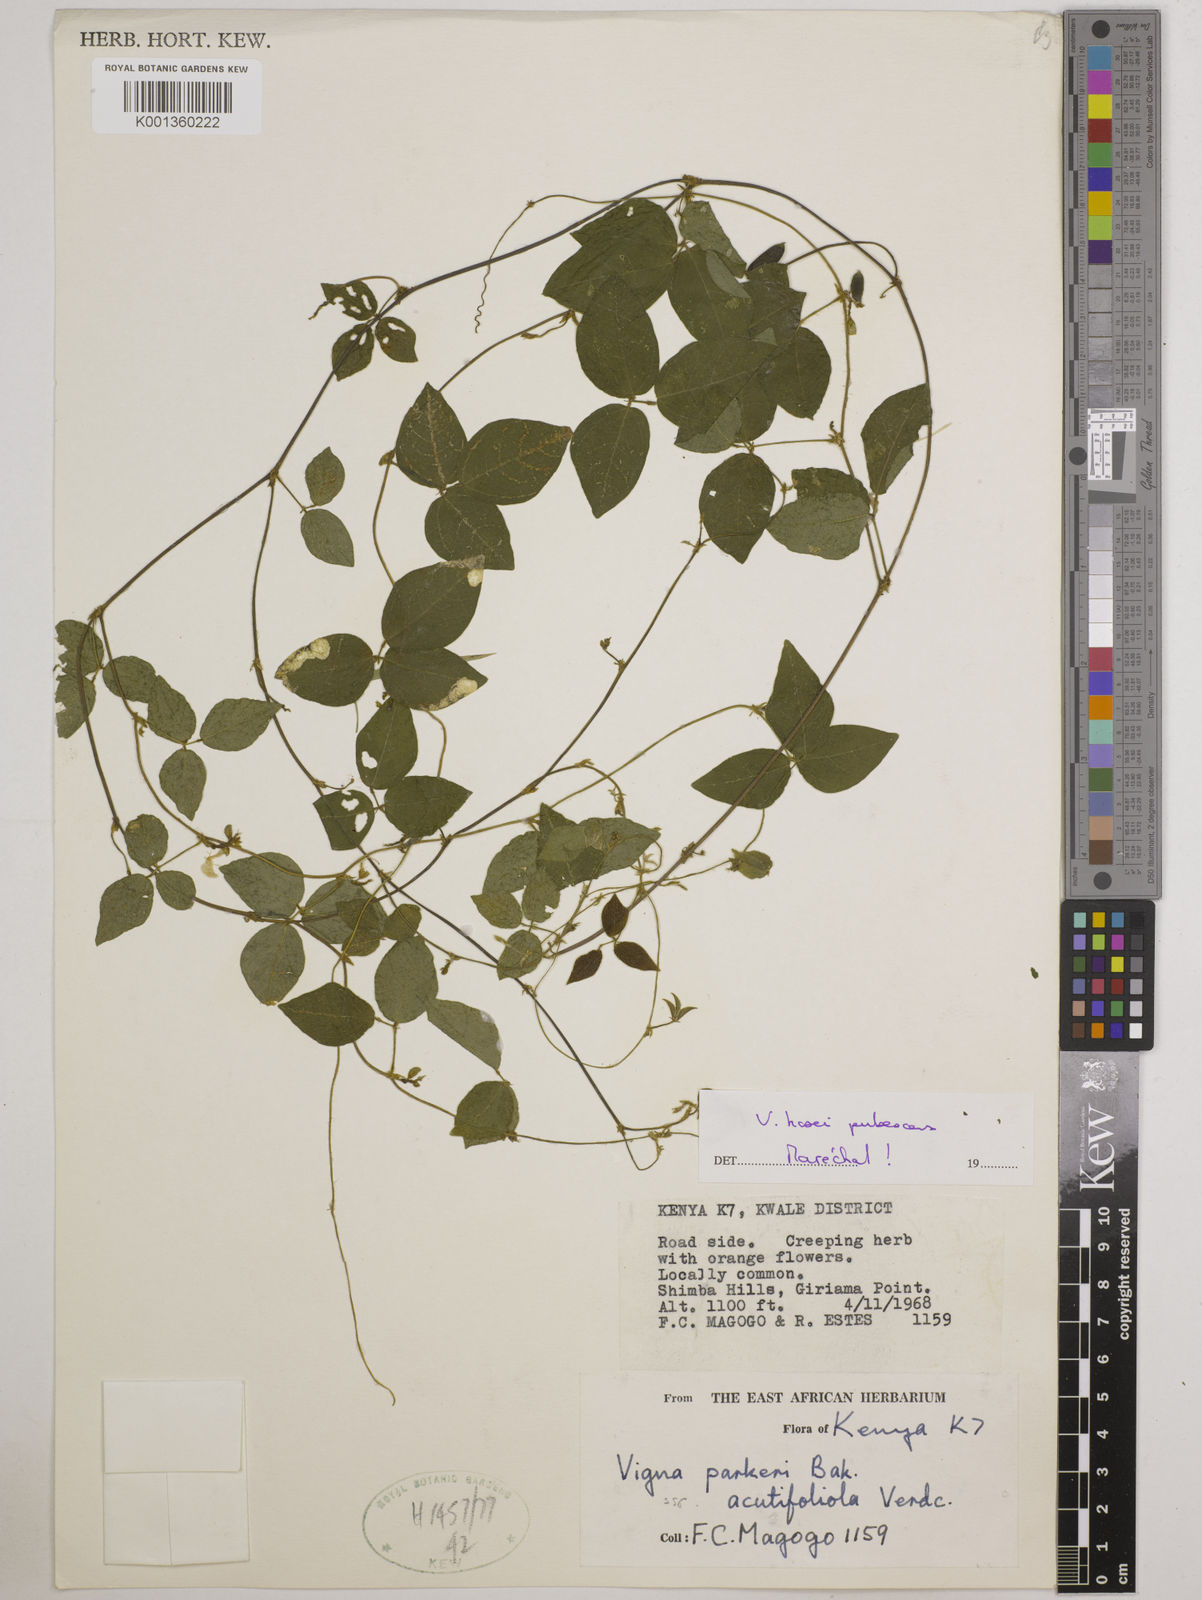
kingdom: Plantae
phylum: Tracheophyta
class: Magnoliopsida
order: Fabales
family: Fabaceae
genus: Vigna
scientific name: Vigna hosei
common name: Sarawak-bean
